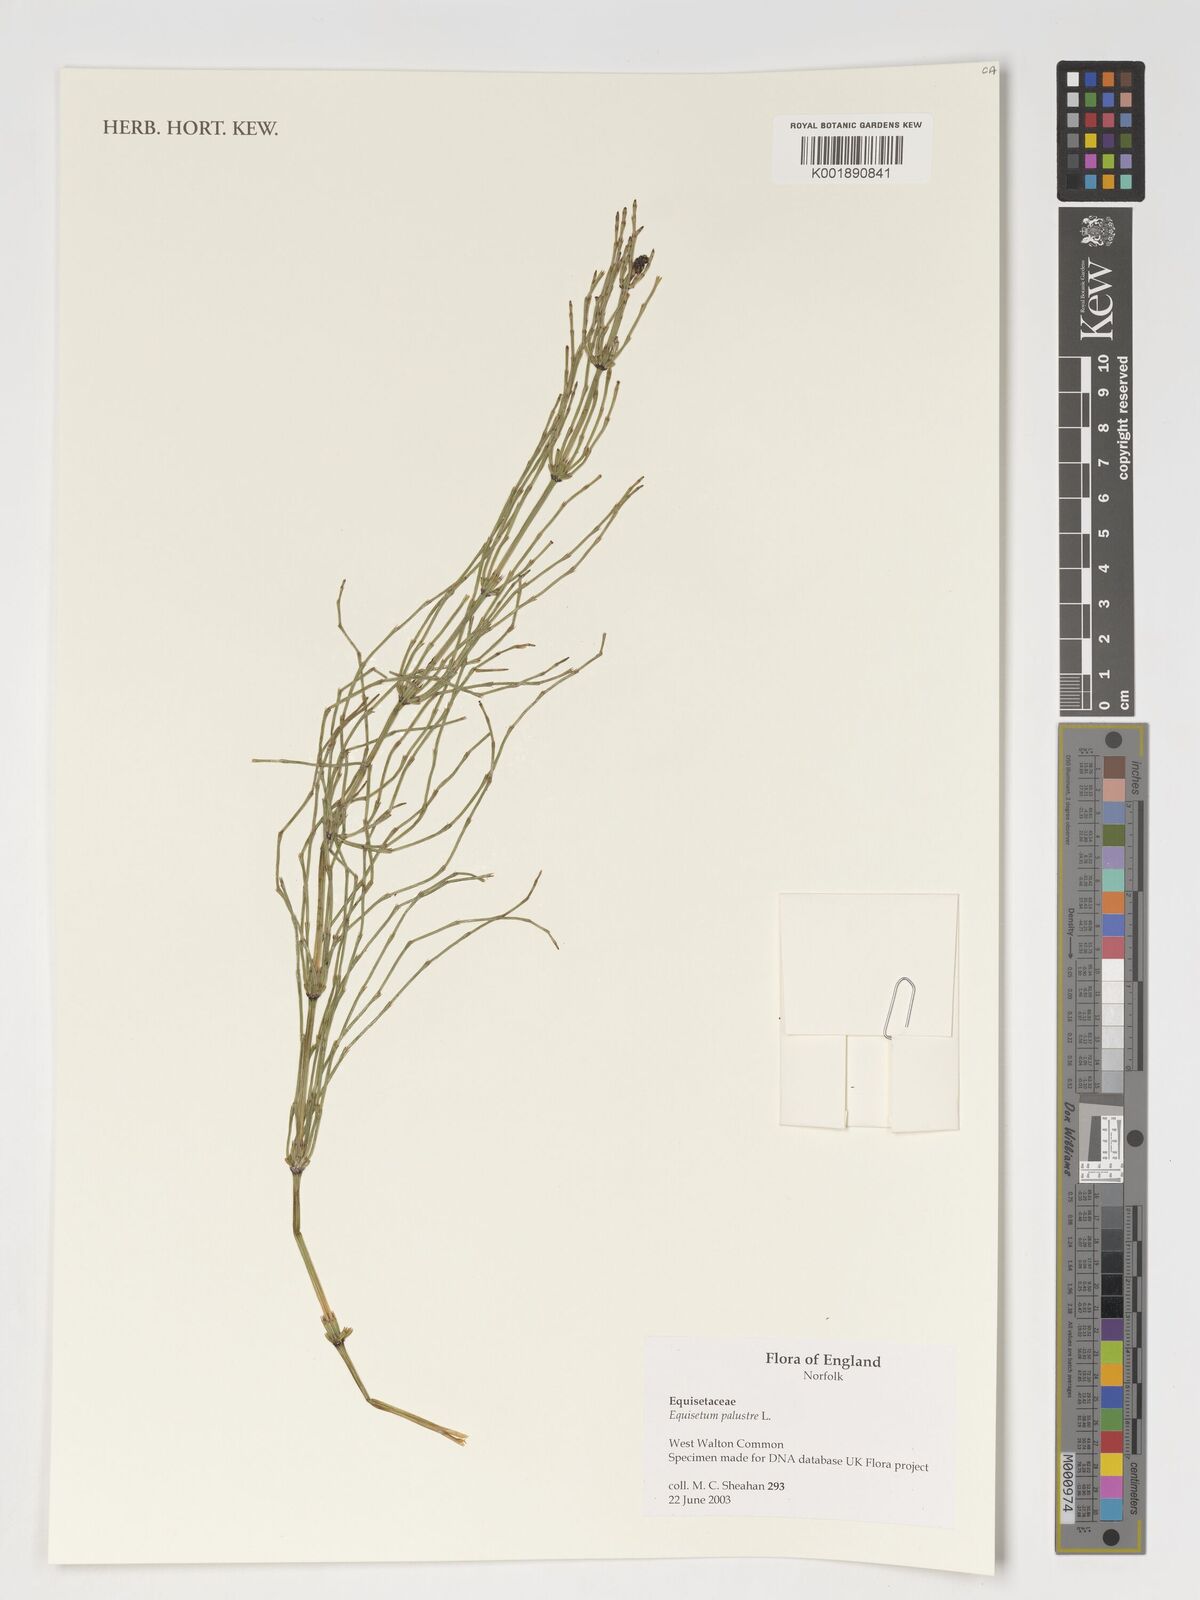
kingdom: Plantae
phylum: Tracheophyta
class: Polypodiopsida
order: Equisetales
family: Equisetaceae
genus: Equisetum
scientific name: Equisetum palustre
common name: Marsh horsetail
